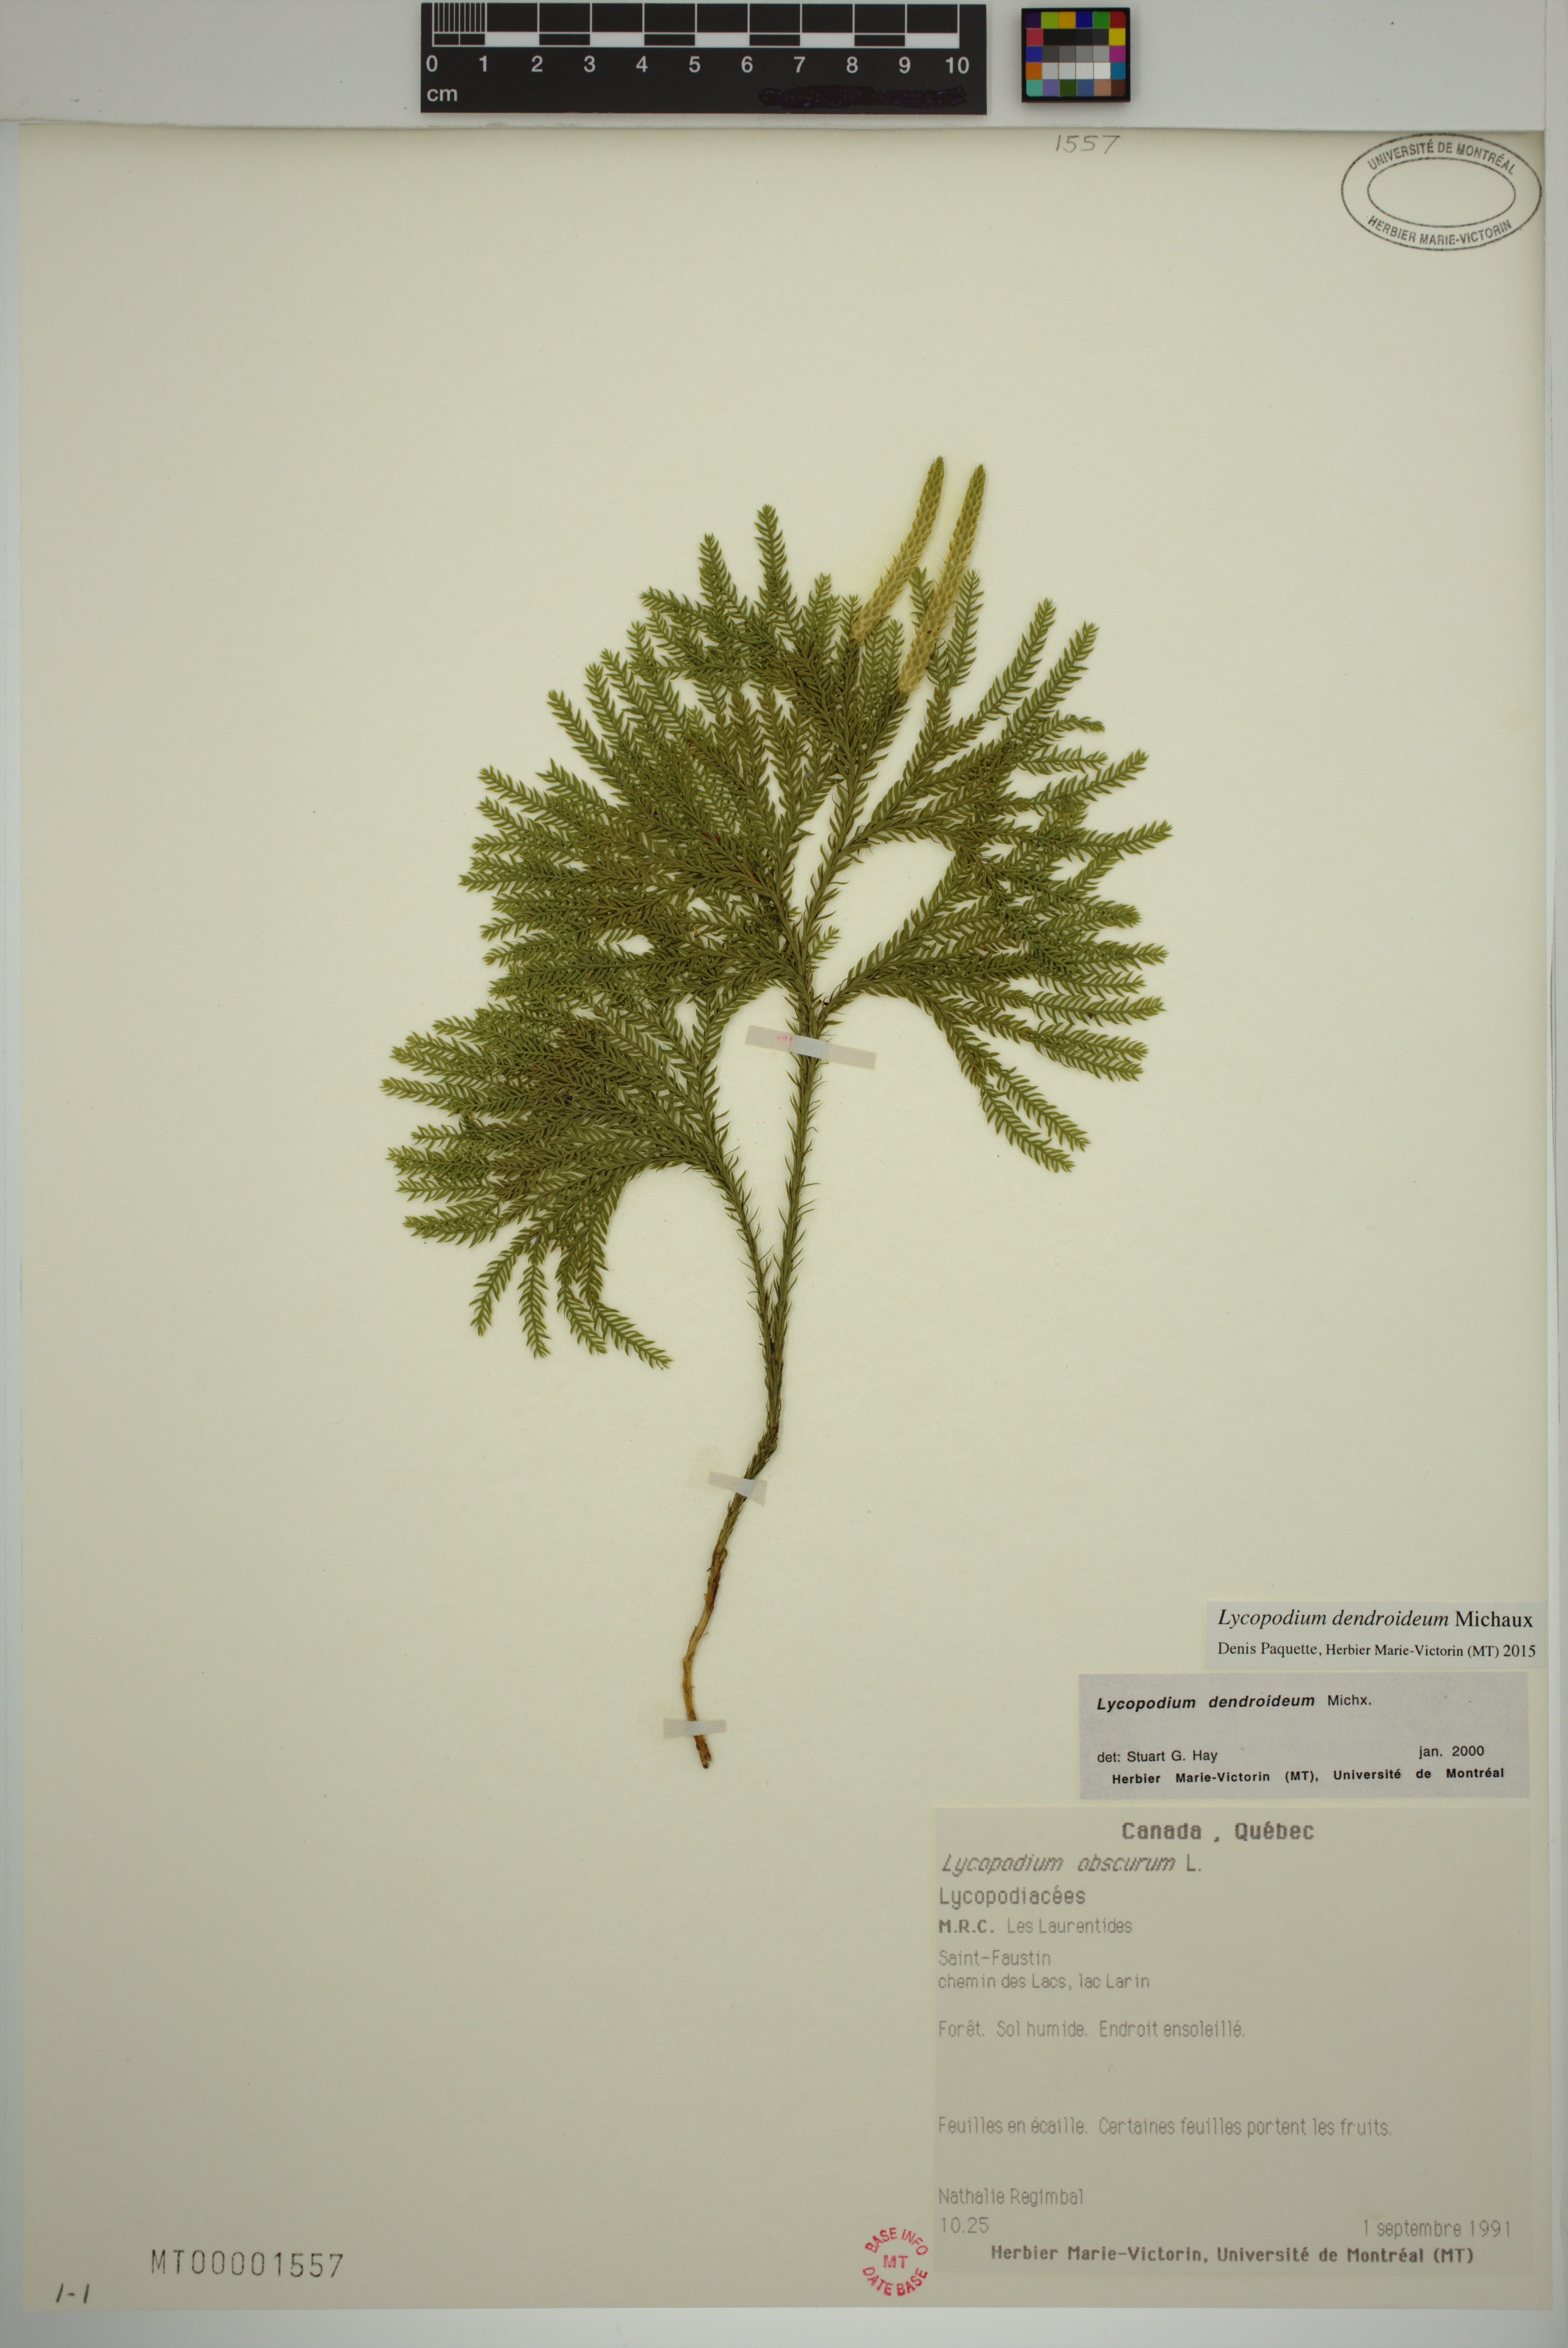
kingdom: Plantae
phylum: Tracheophyta
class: Lycopodiopsida
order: Lycopodiales
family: Lycopodiaceae
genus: Dendrolycopodium
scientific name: Dendrolycopodium dendroideum
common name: Northern tree-clubmoss
